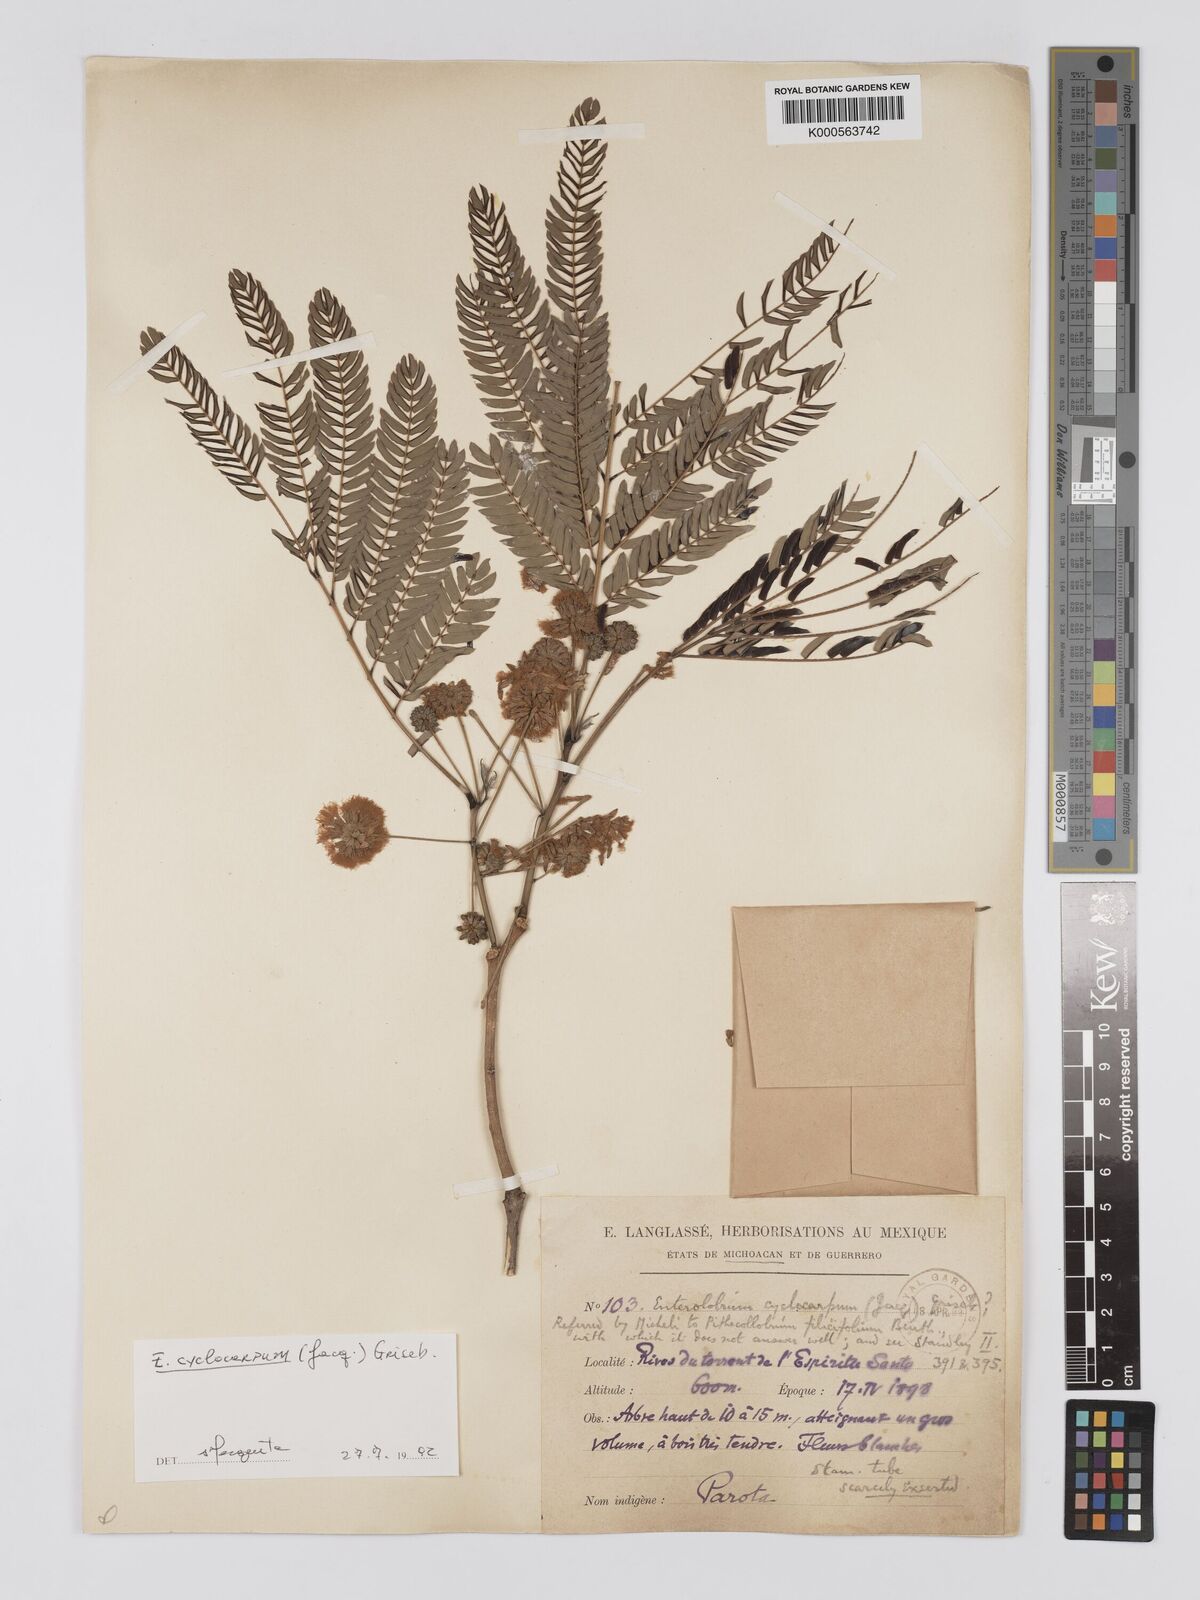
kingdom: Plantae
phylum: Tracheophyta
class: Magnoliopsida
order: Fabales
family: Fabaceae
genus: Enterolobium
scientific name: Enterolobium cyclocarpum
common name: Ear tree
